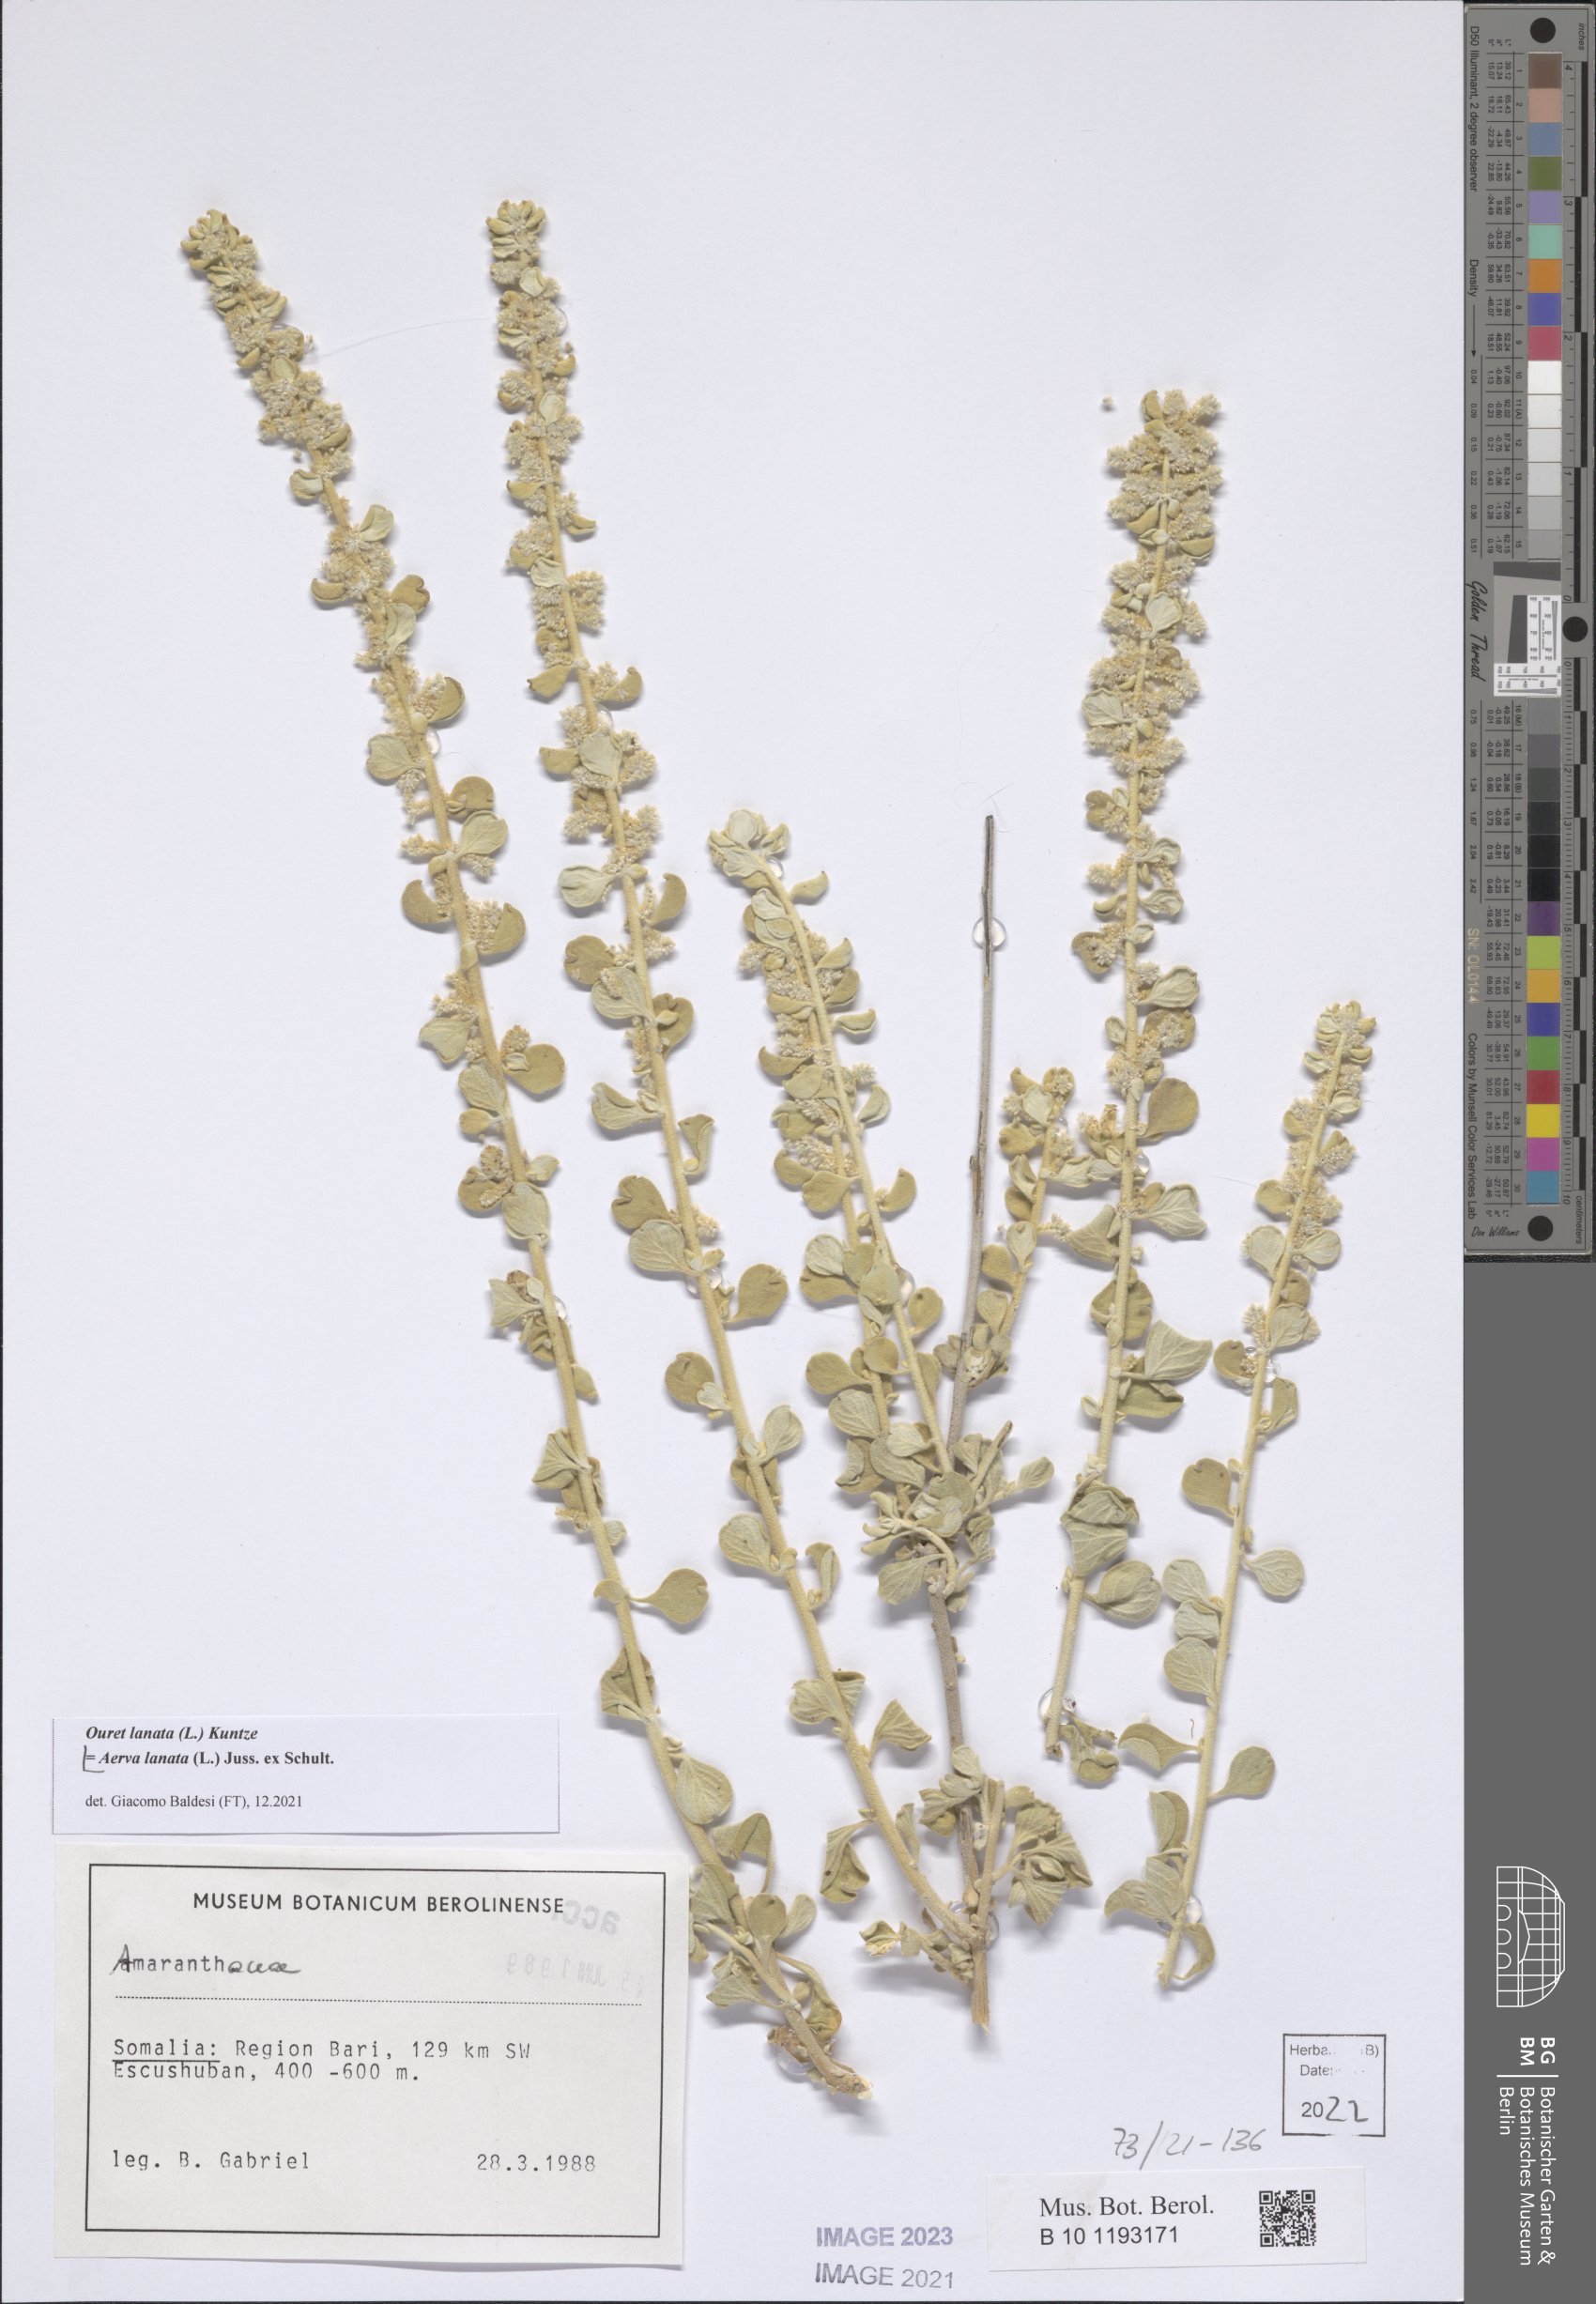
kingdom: Plantae
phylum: Tracheophyta
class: Magnoliopsida
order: Caryophyllales
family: Amaranthaceae
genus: Ouret
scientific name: Ouret lanata
